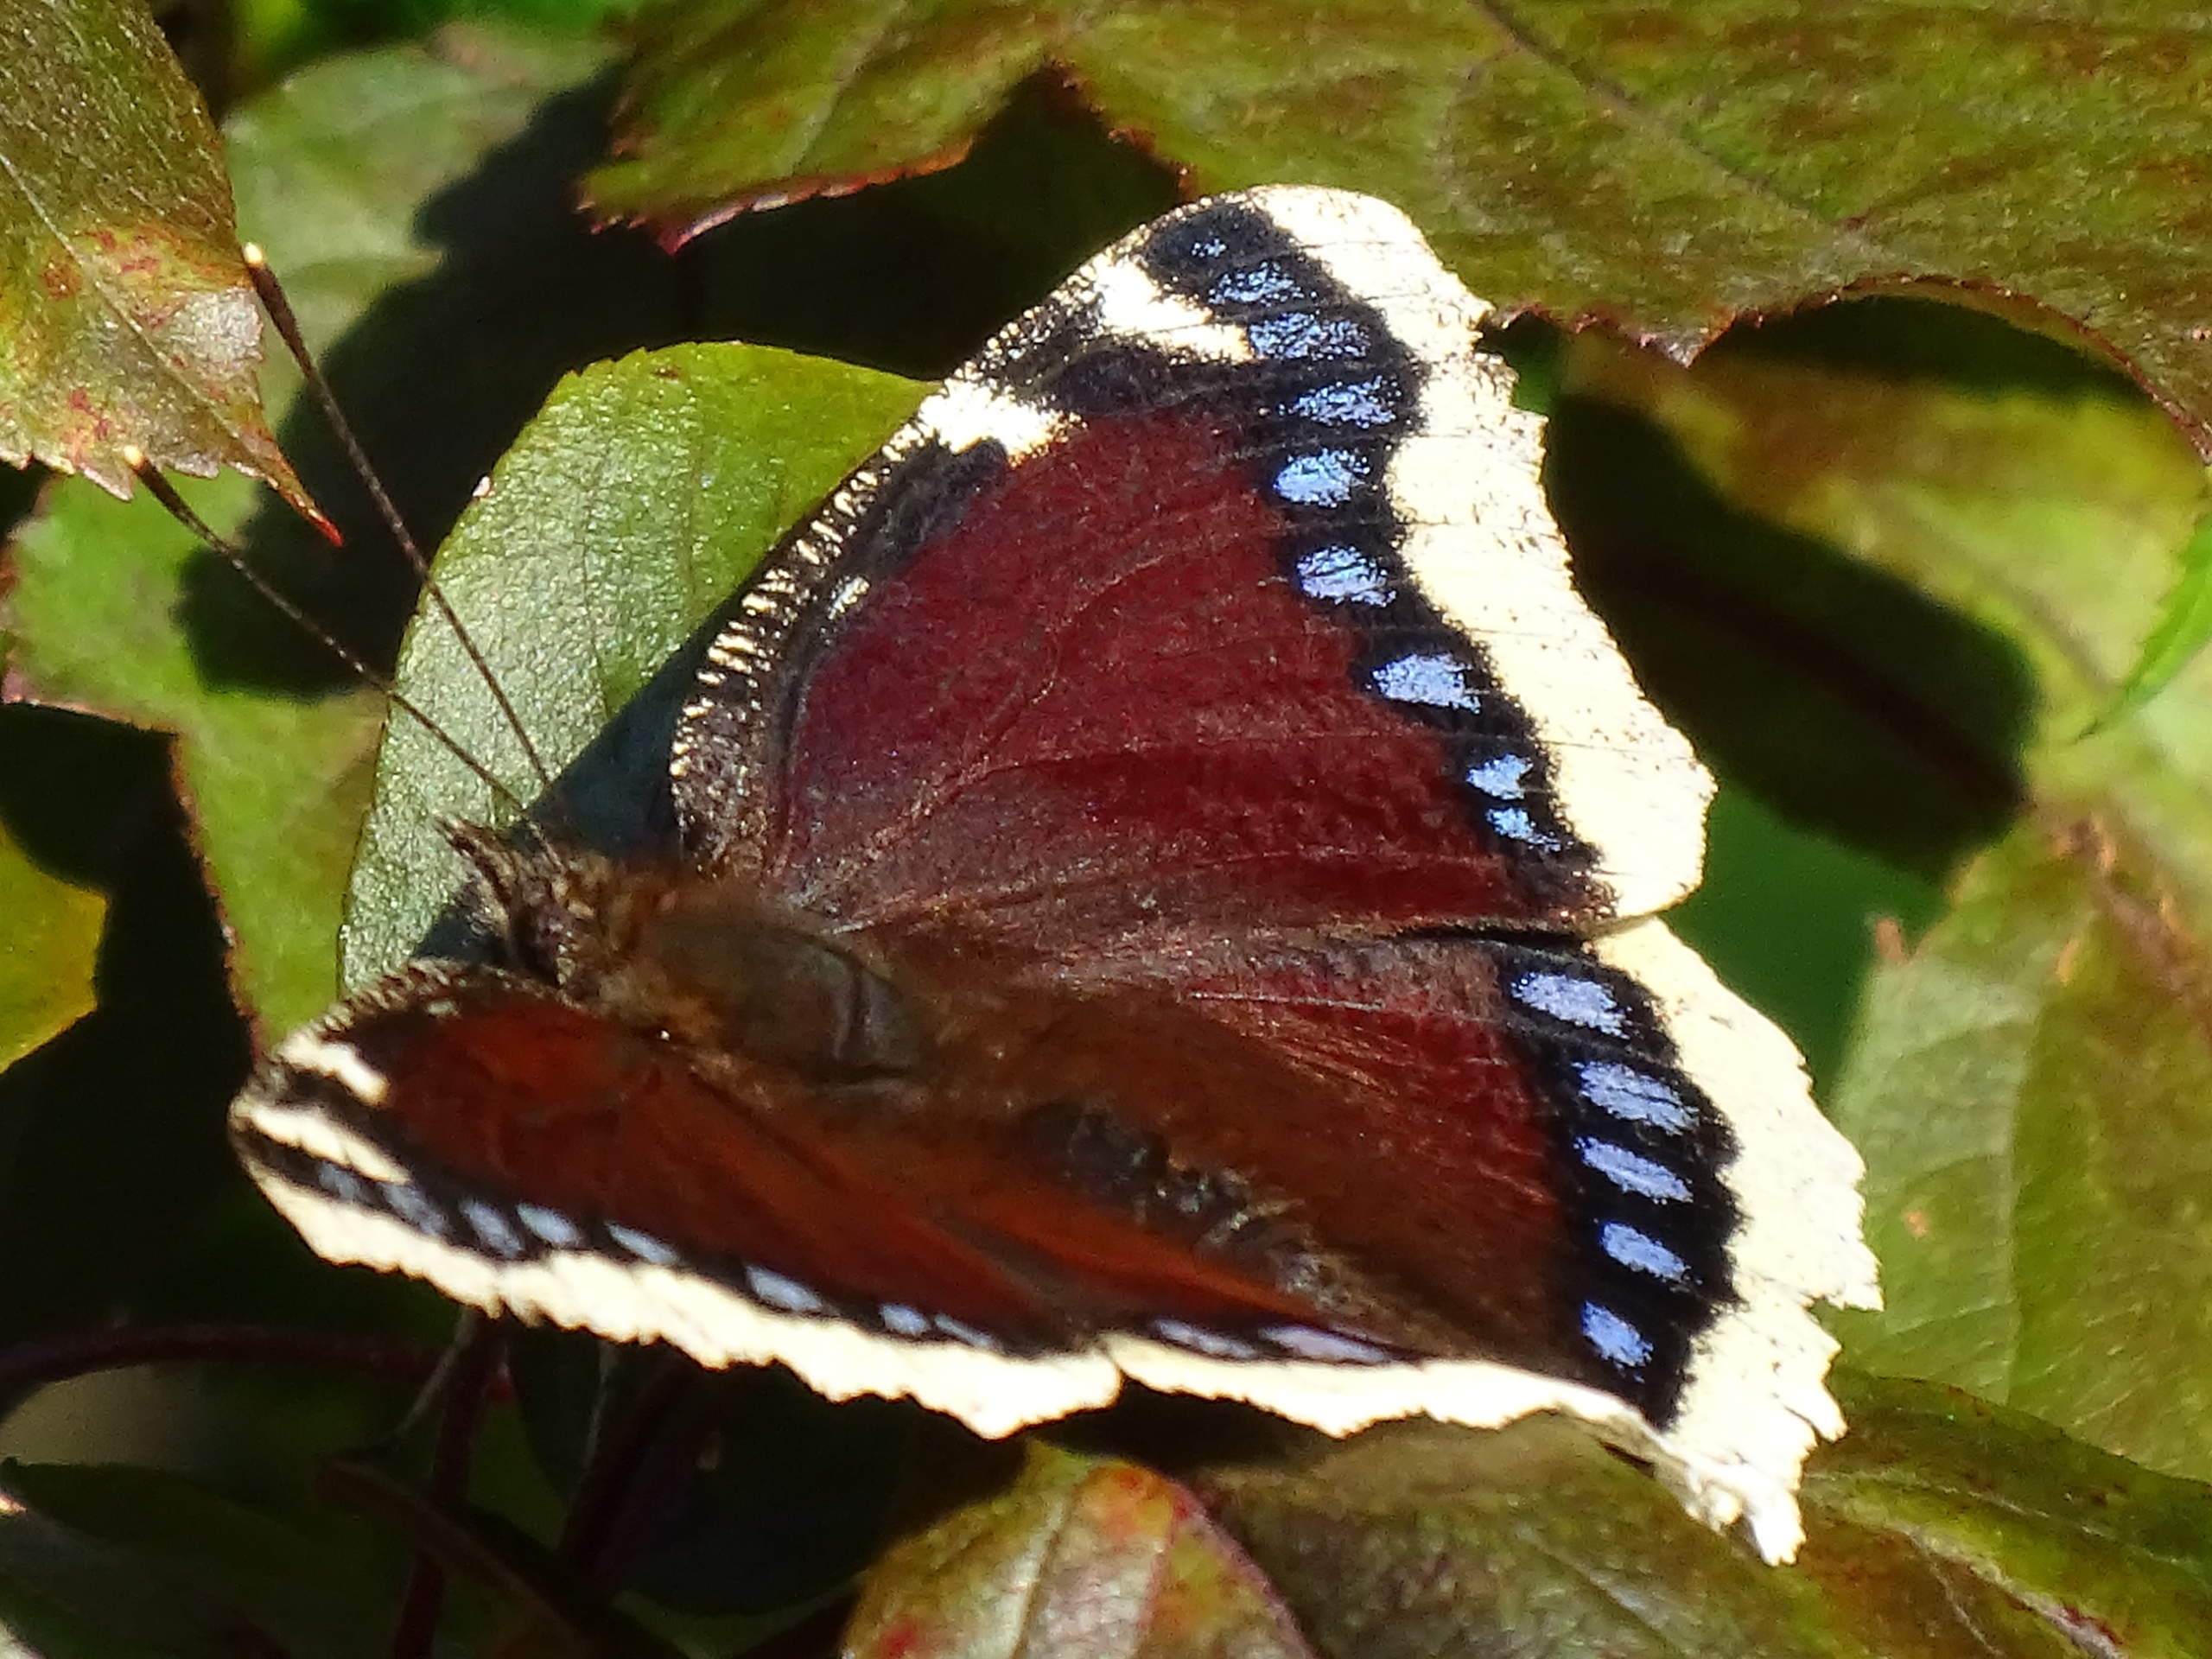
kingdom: Animalia
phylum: Arthropoda
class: Insecta
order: Lepidoptera
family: Nymphalidae
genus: Nymphalis
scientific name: Nymphalis antiopa
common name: Sørgekåbe
